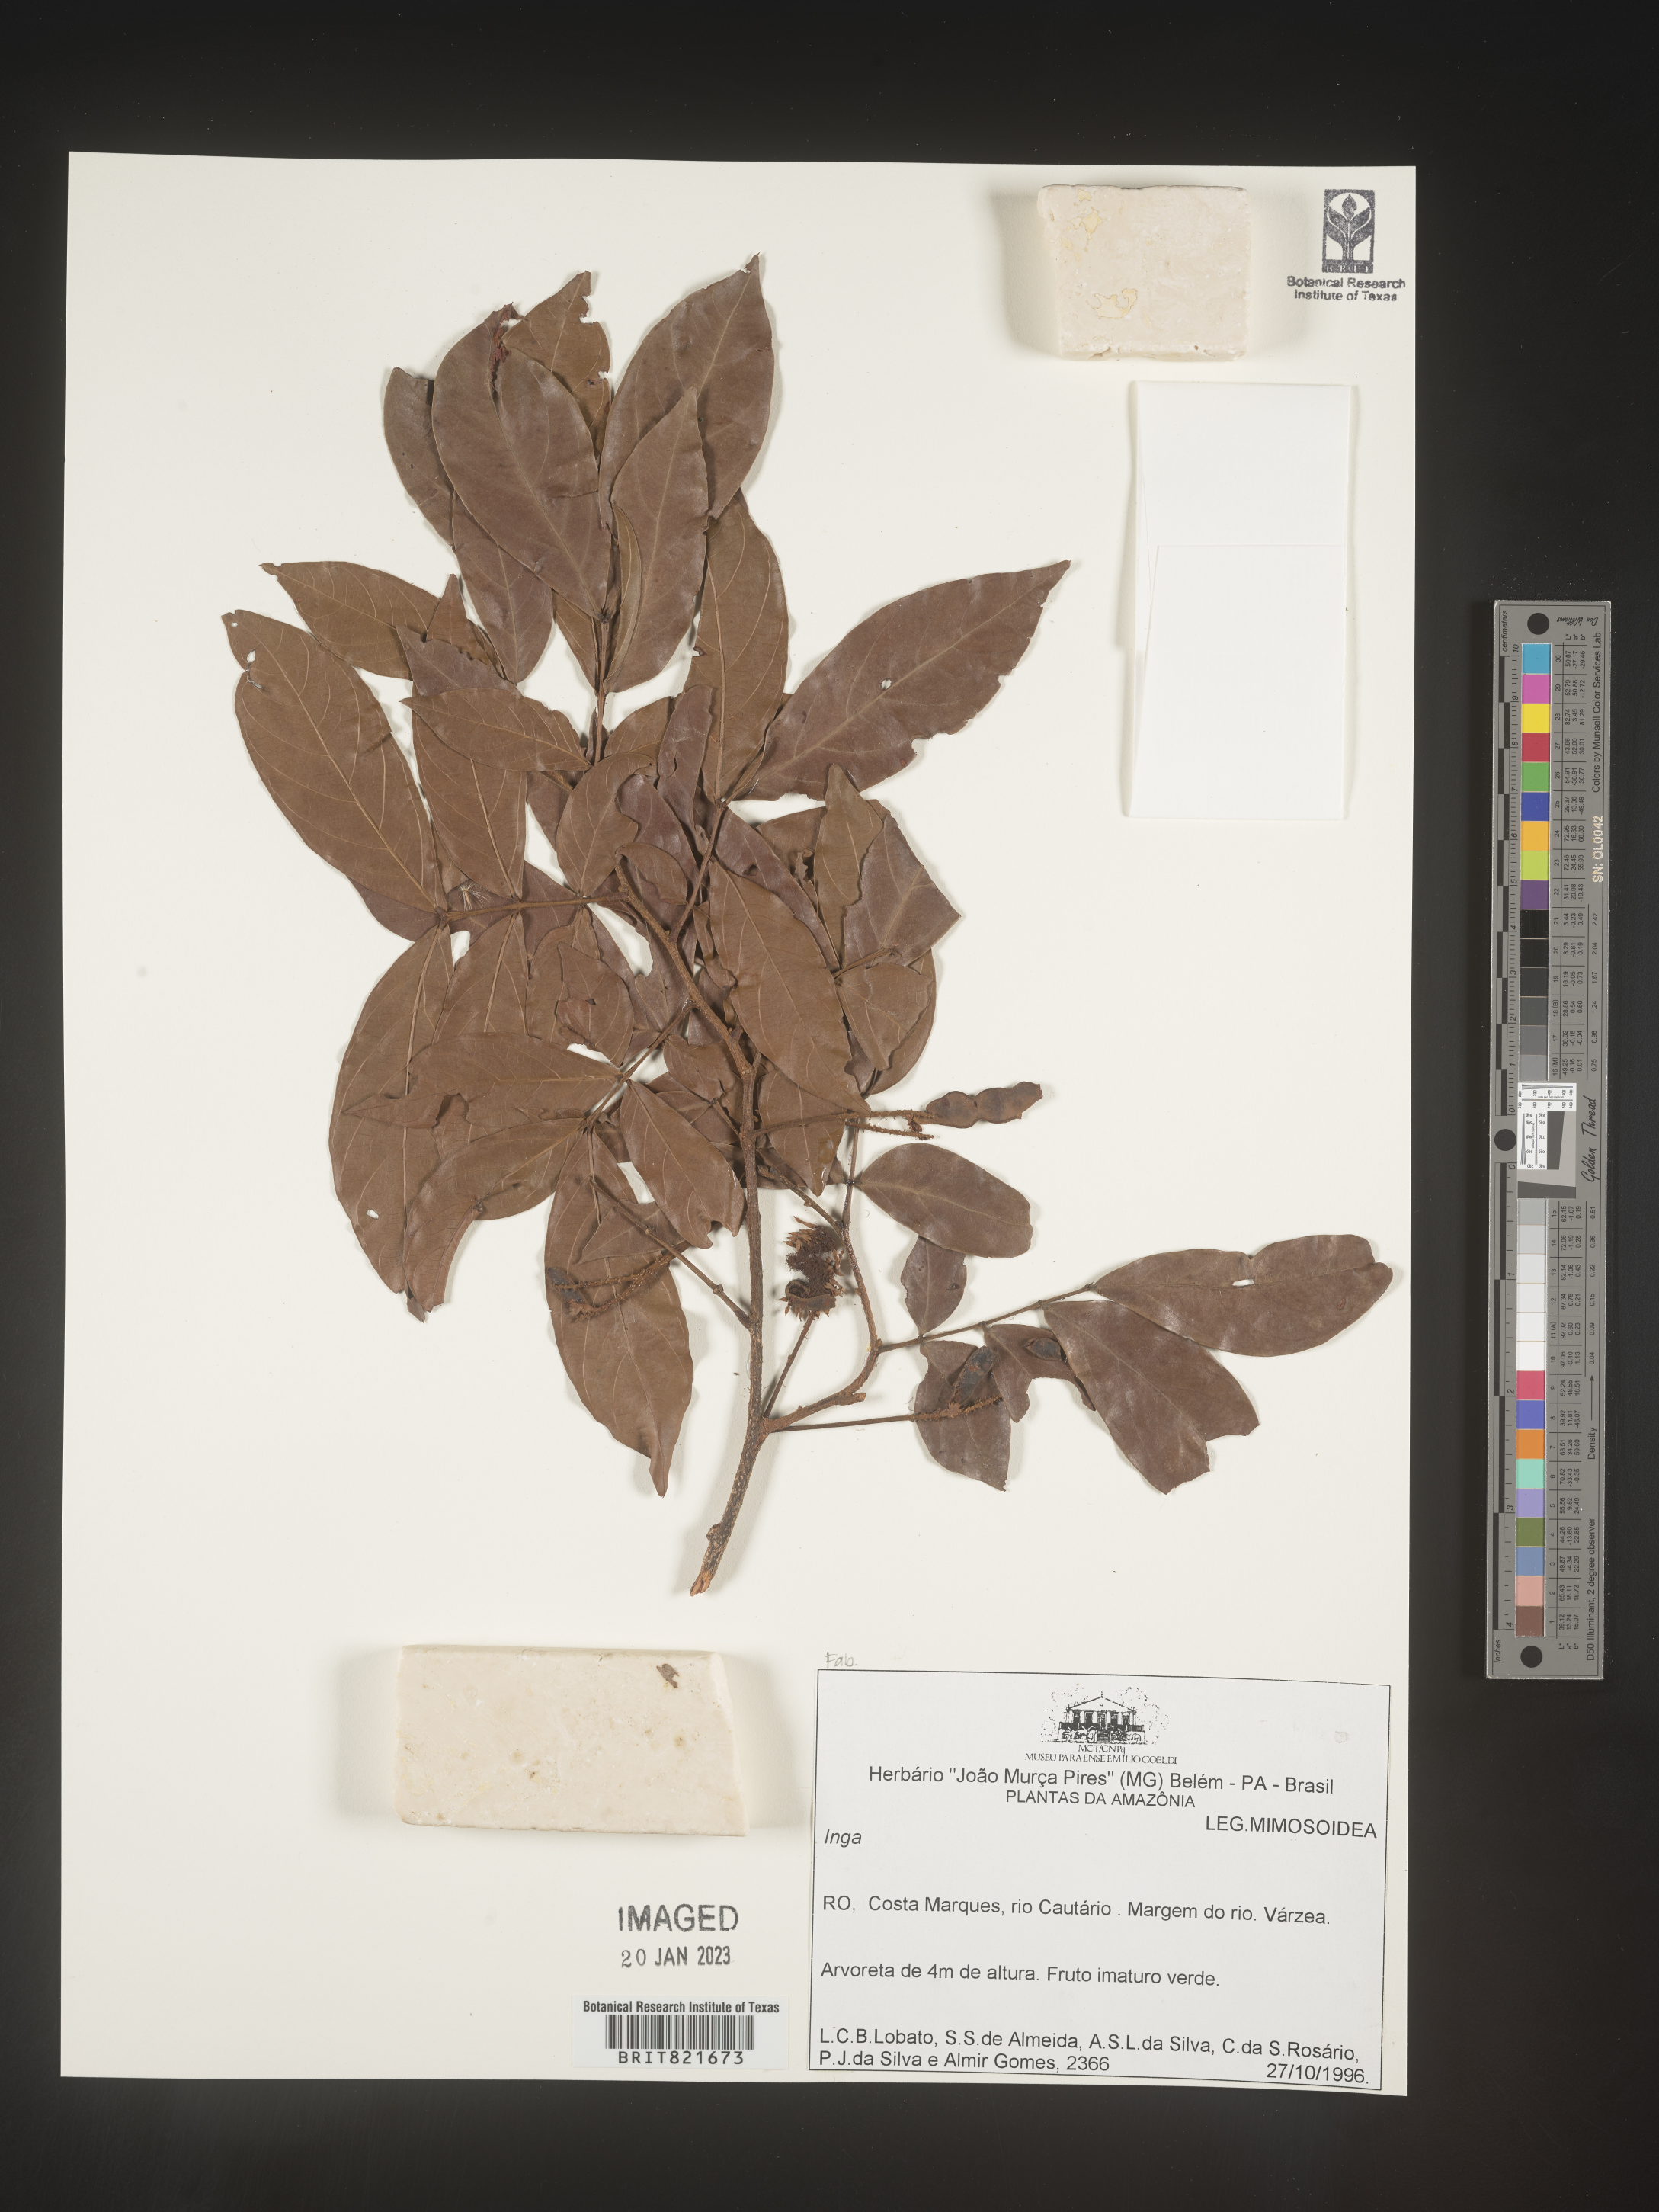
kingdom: Plantae
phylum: Tracheophyta
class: Magnoliopsida
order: Fabales
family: Fabaceae
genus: Inga
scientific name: Inga
